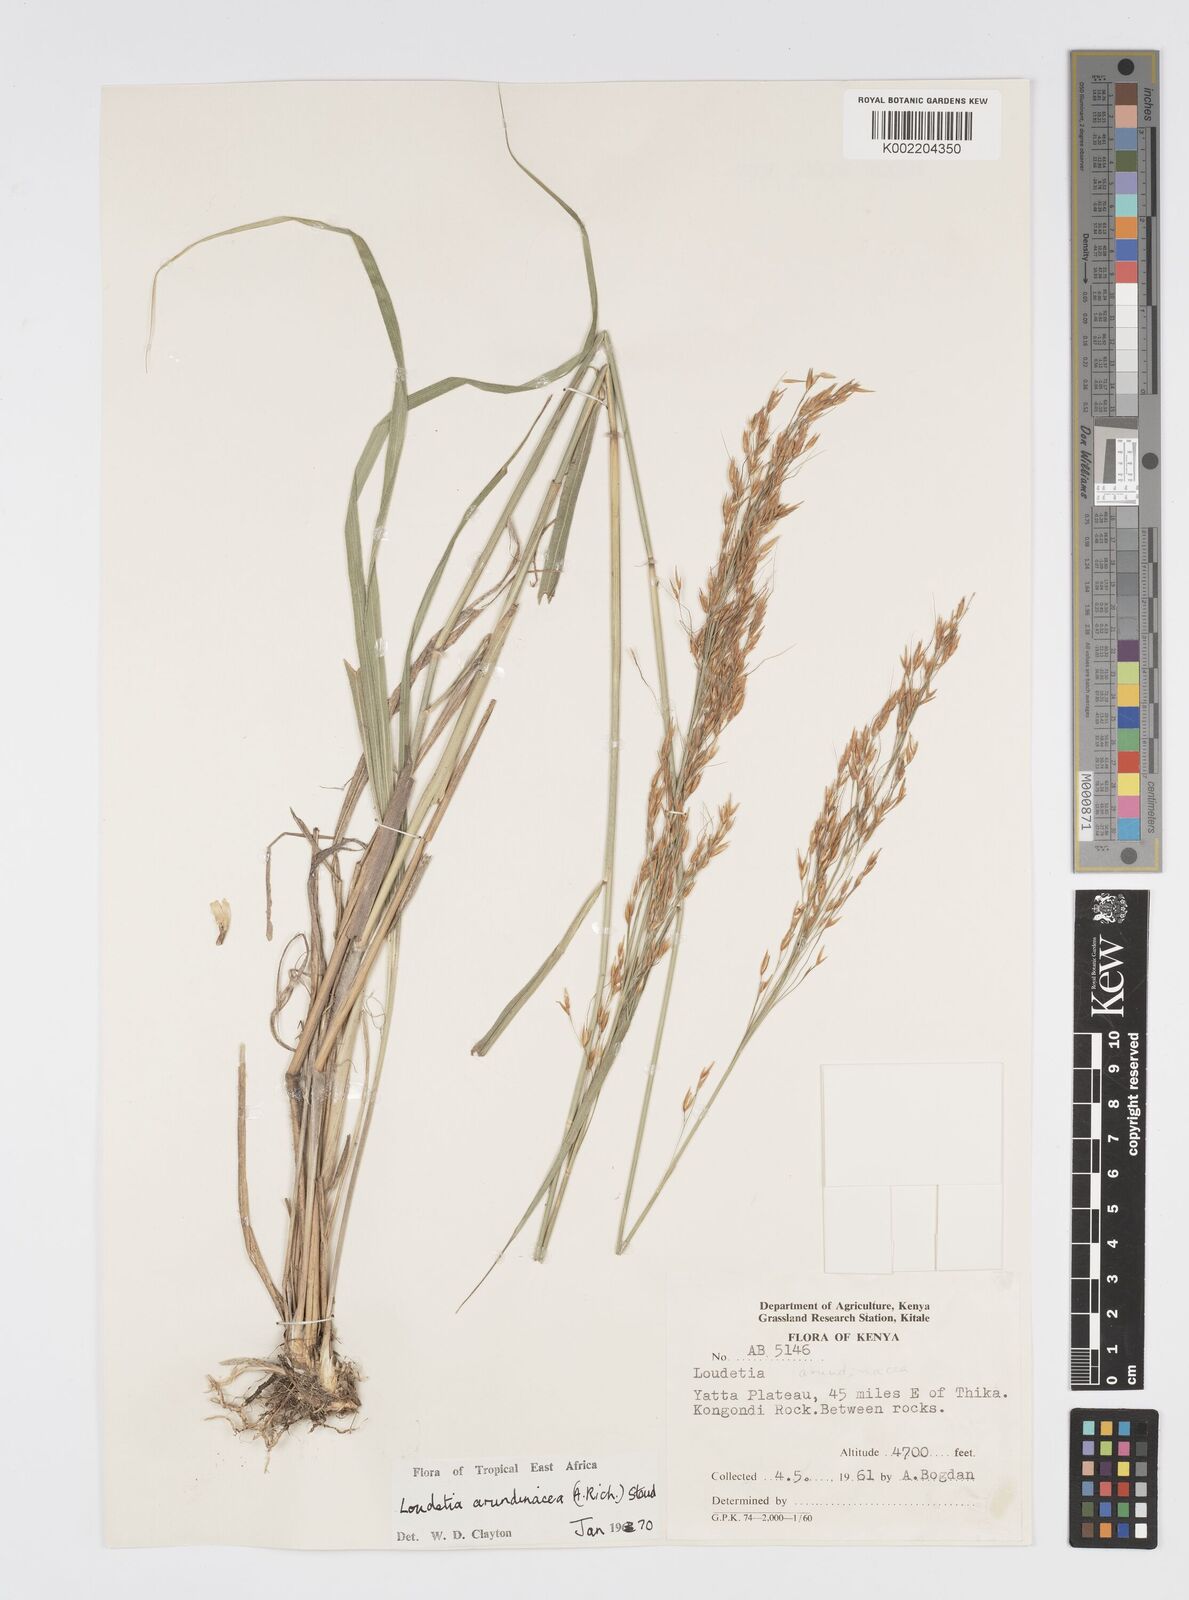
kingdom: Plantae
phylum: Tracheophyta
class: Liliopsida
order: Poales
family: Poaceae
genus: Loudetia
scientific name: Loudetia arundinacea
